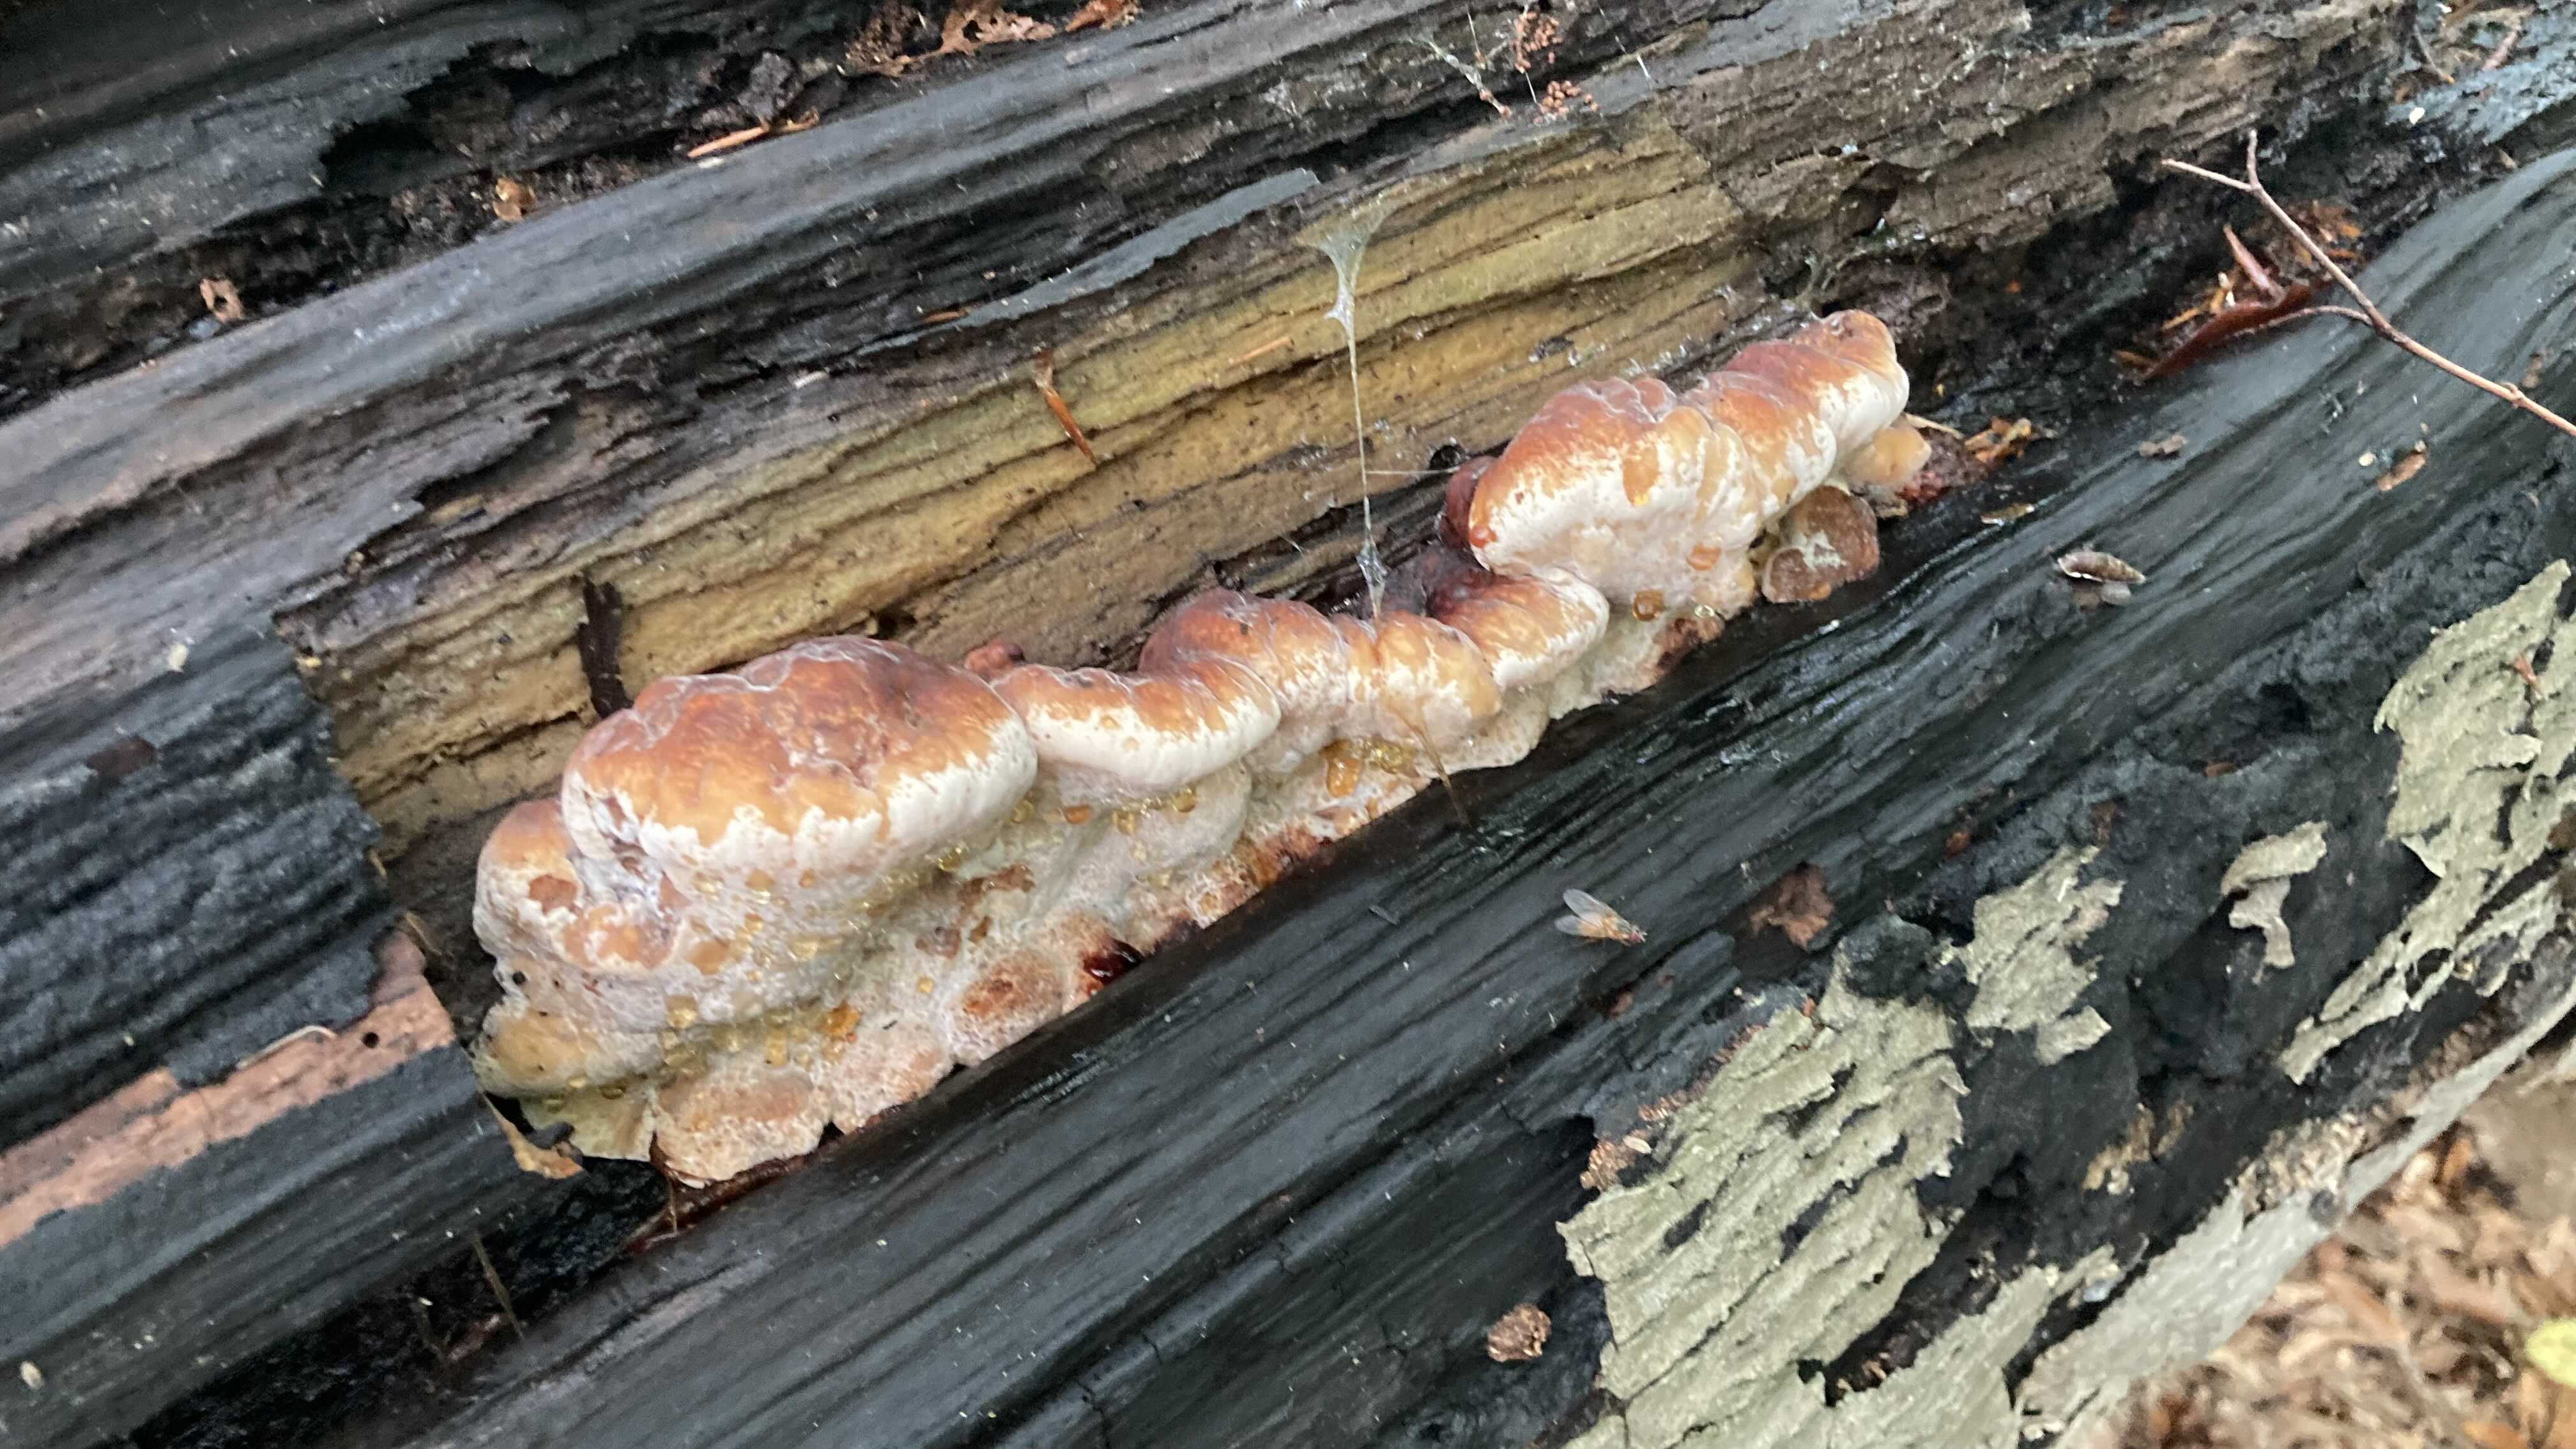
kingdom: Fungi
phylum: Basidiomycota
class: Agaricomycetes
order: Polyporales
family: Ischnodermataceae
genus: Ischnoderma
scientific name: Ischnoderma resinosum
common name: løv-tjæreporesvamp
